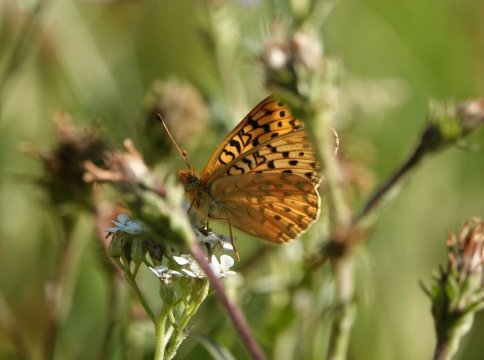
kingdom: Animalia
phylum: Arthropoda
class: Insecta
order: Lepidoptera
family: Nymphalidae
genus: Speyeria
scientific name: Speyeria
